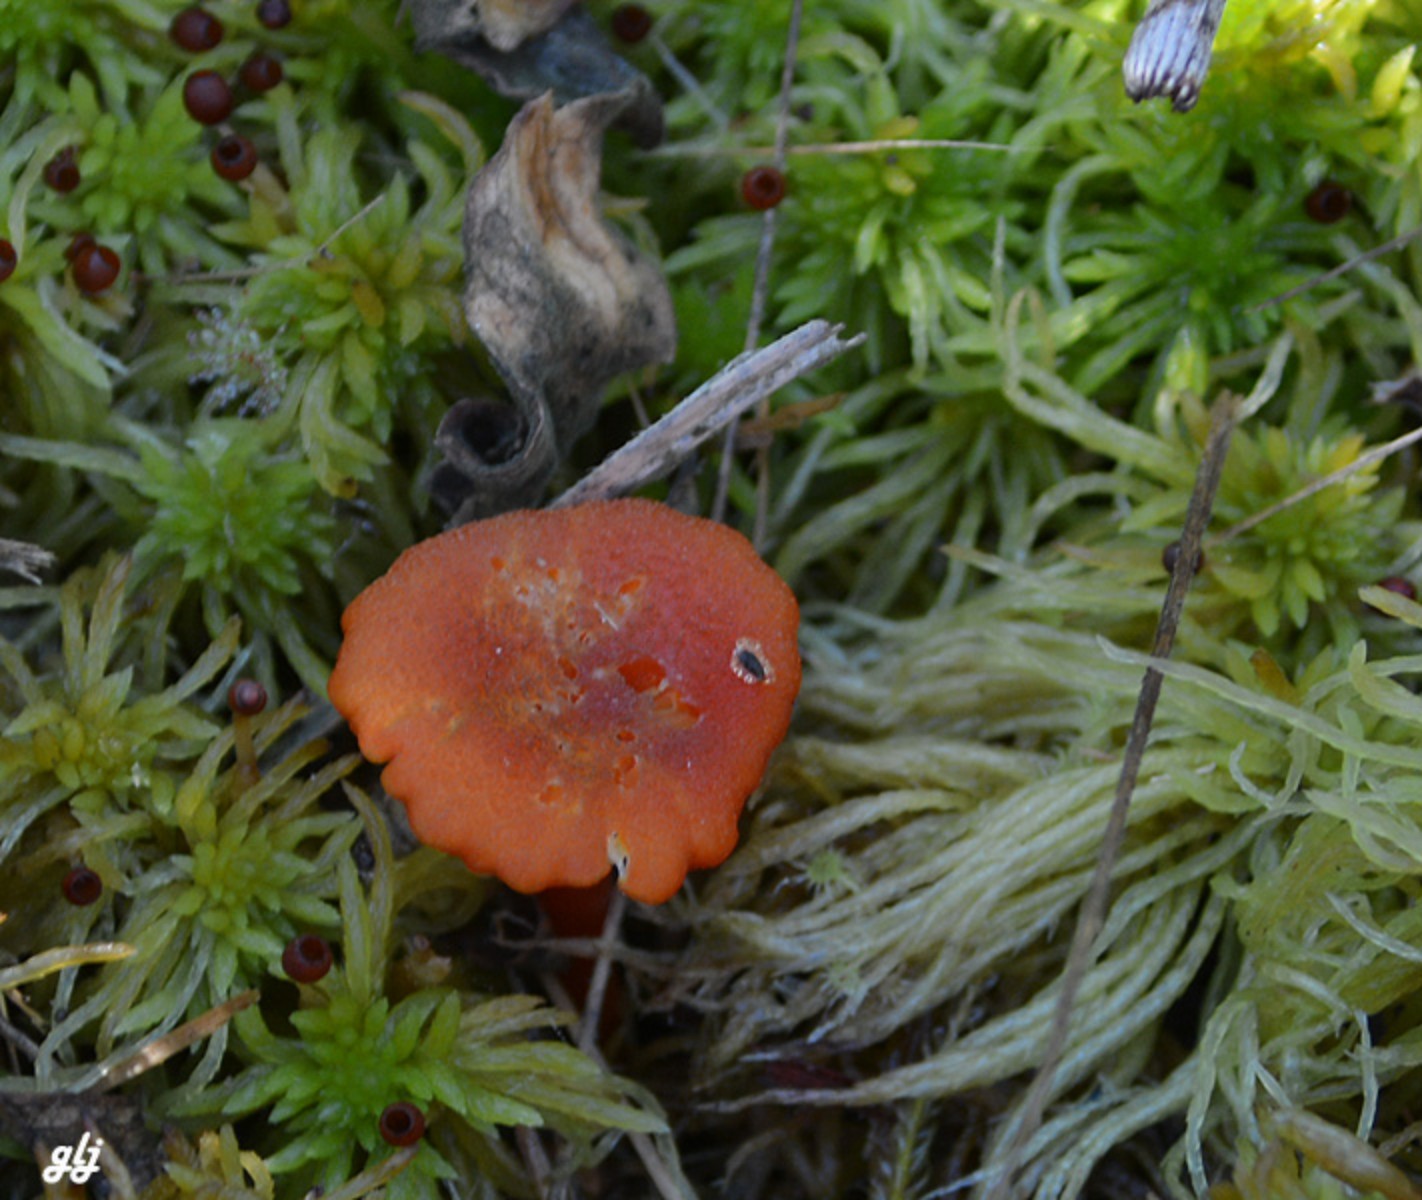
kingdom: Fungi
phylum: Basidiomycota
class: Agaricomycetes
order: Agaricales
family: Hygrophoraceae
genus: Hygrocybe
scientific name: Hygrocybe coccineocrenata
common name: tørvemos-vokshat
